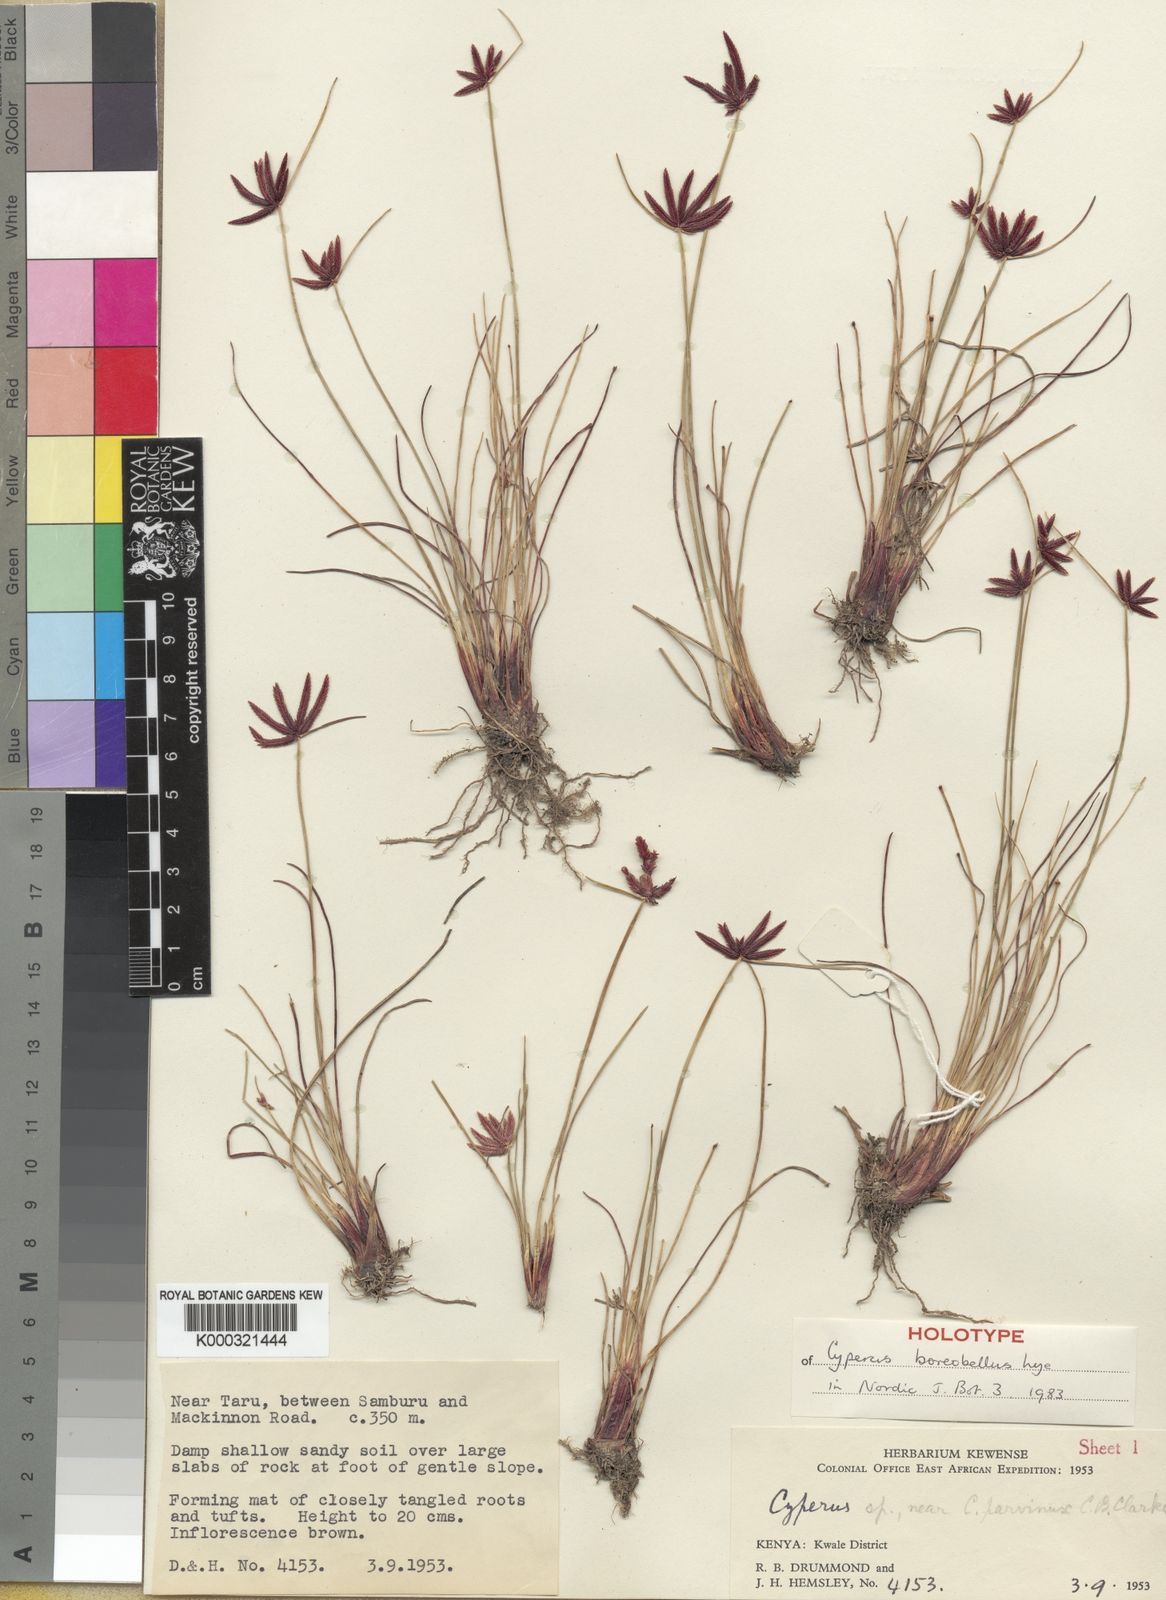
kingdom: Plantae
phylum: Tracheophyta
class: Liliopsida
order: Poales
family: Cyperaceae
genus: Cyperus
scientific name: Cyperus boreobellus
